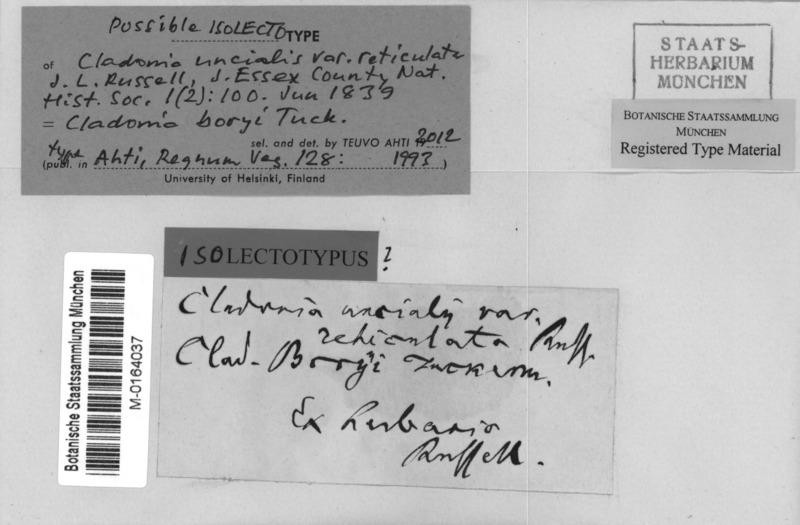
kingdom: Fungi
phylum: Ascomycota
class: Lecanoromycetes
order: Lecanorales
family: Cladoniaceae
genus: Cladonia
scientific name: Cladonia boryi
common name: Fishnet cladonia
